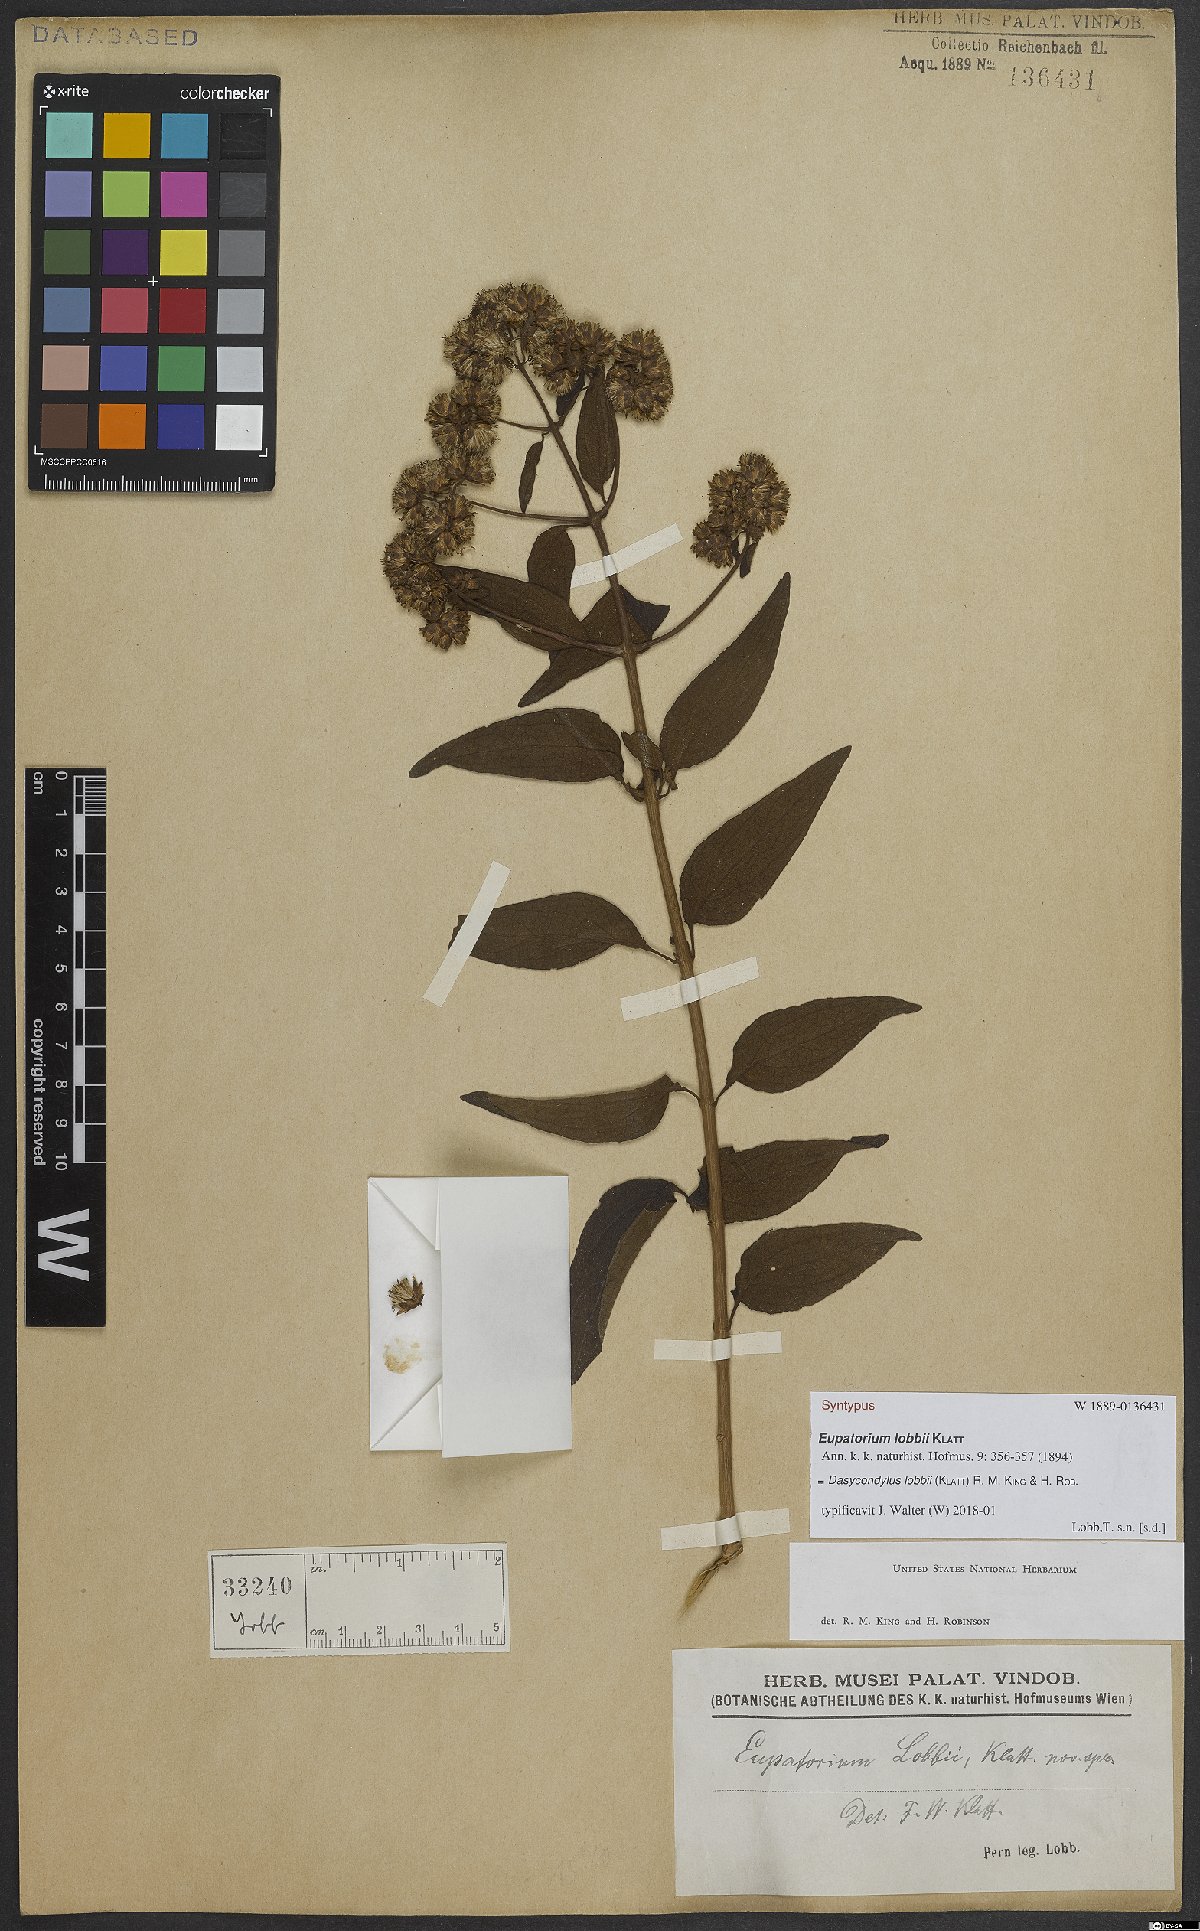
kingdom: Plantae
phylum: Tracheophyta
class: Magnoliopsida
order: Asterales
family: Asteraceae
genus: Dasycondylus
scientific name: Dasycondylus lobbii
